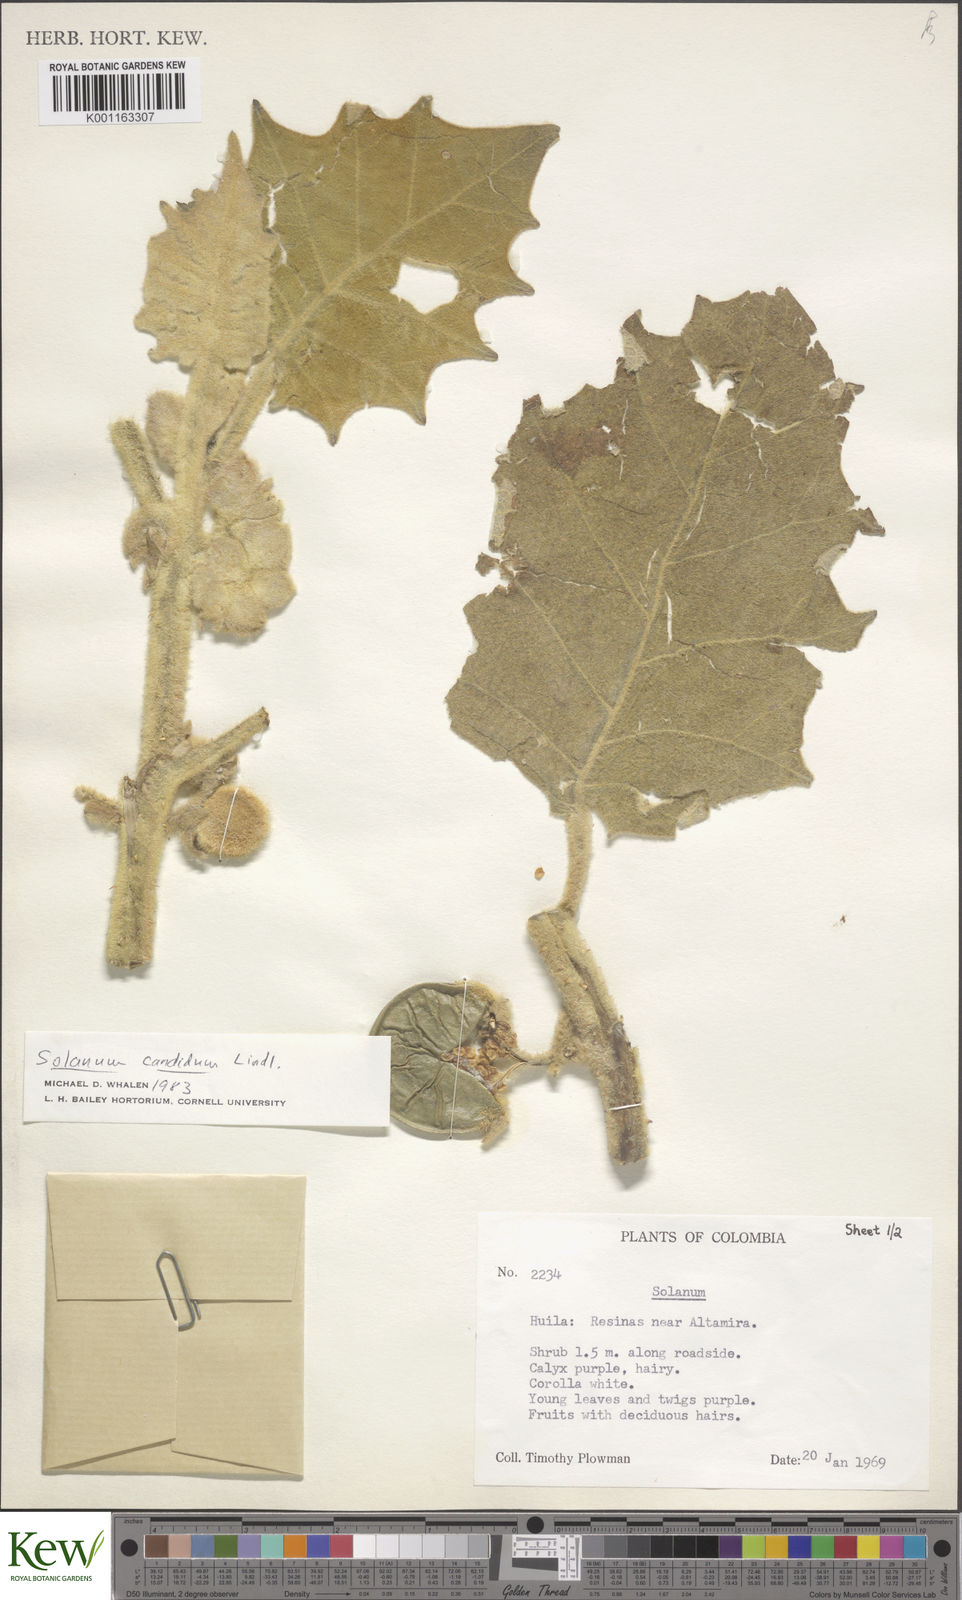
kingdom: Plantae
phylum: Tracheophyta
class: Magnoliopsida
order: Solanales
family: Solanaceae
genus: Solanum
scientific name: Solanum candidum
